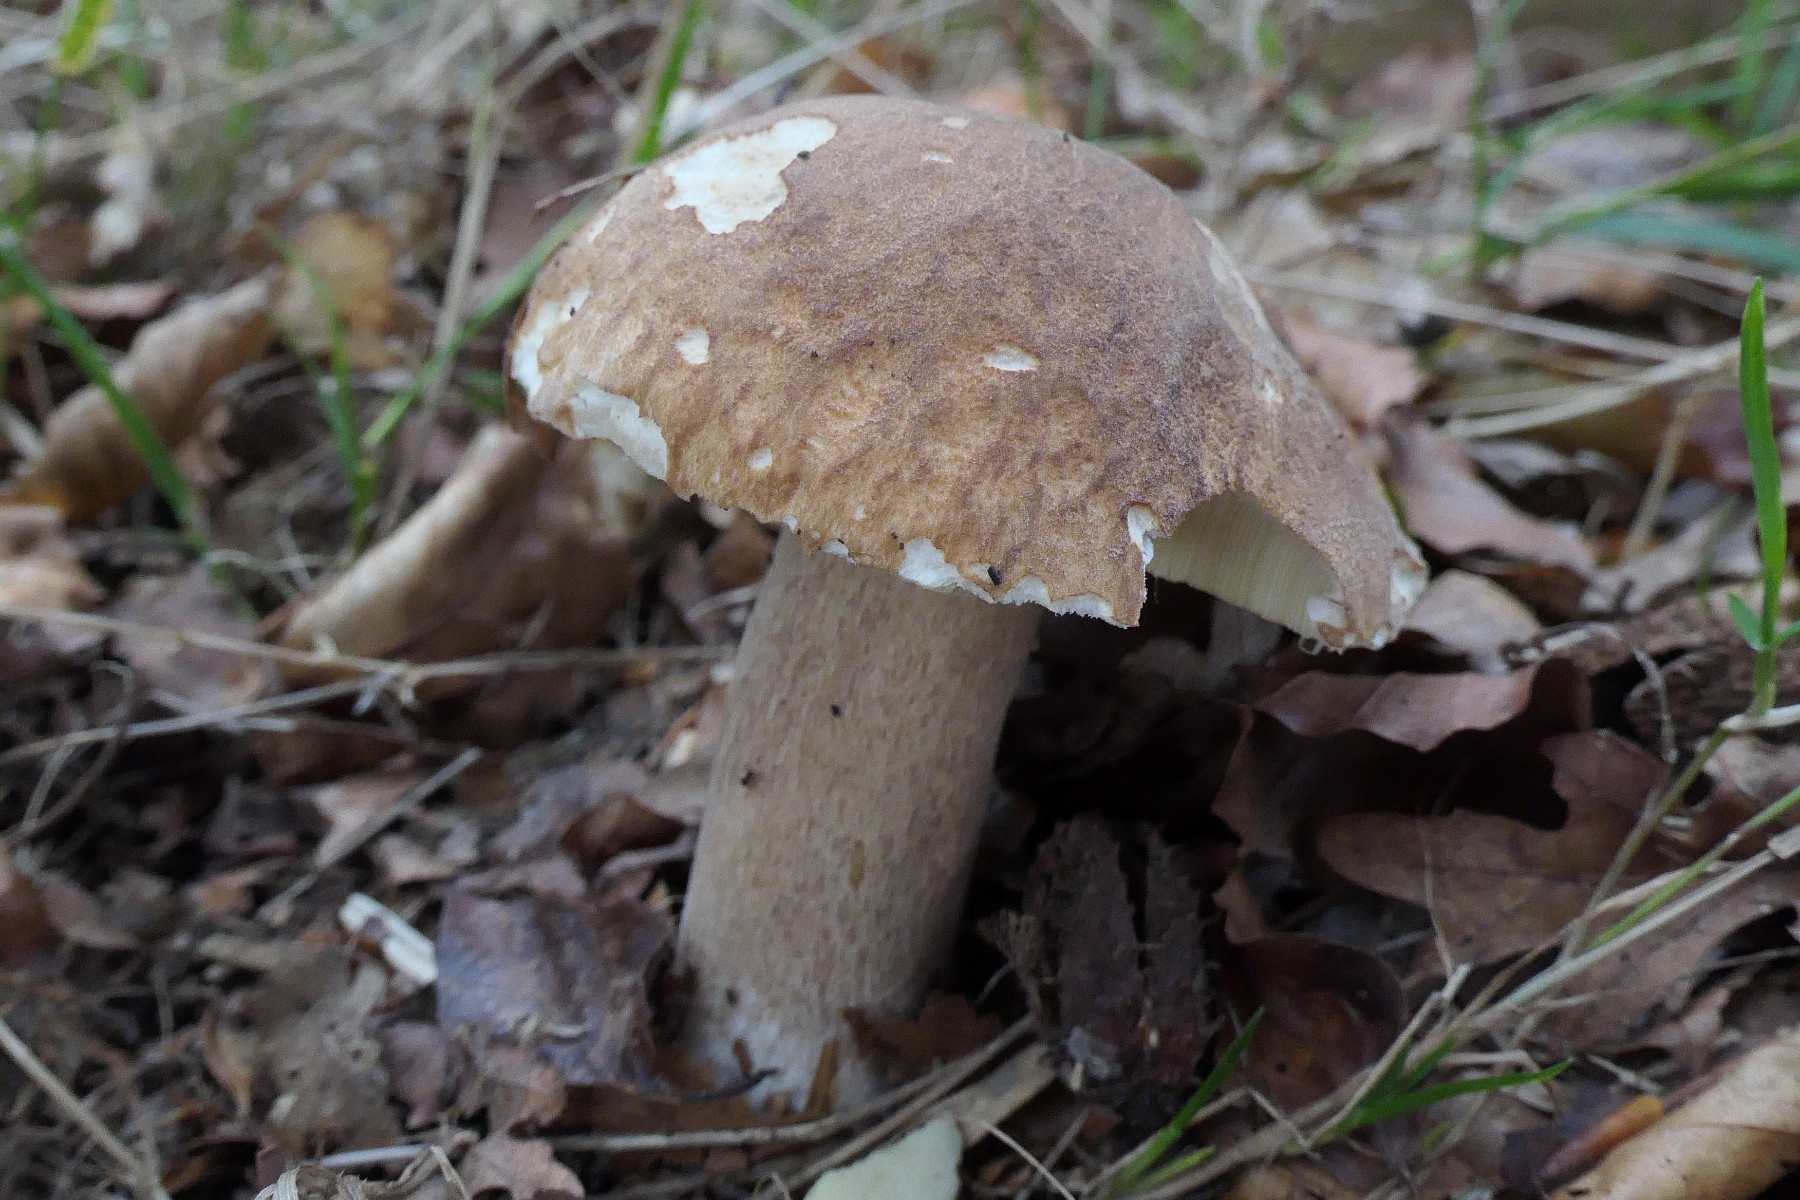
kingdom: Fungi
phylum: Basidiomycota
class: Agaricomycetes
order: Boletales
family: Boletaceae
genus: Boletus
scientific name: Boletus reticulatus
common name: sommer-rørhat
